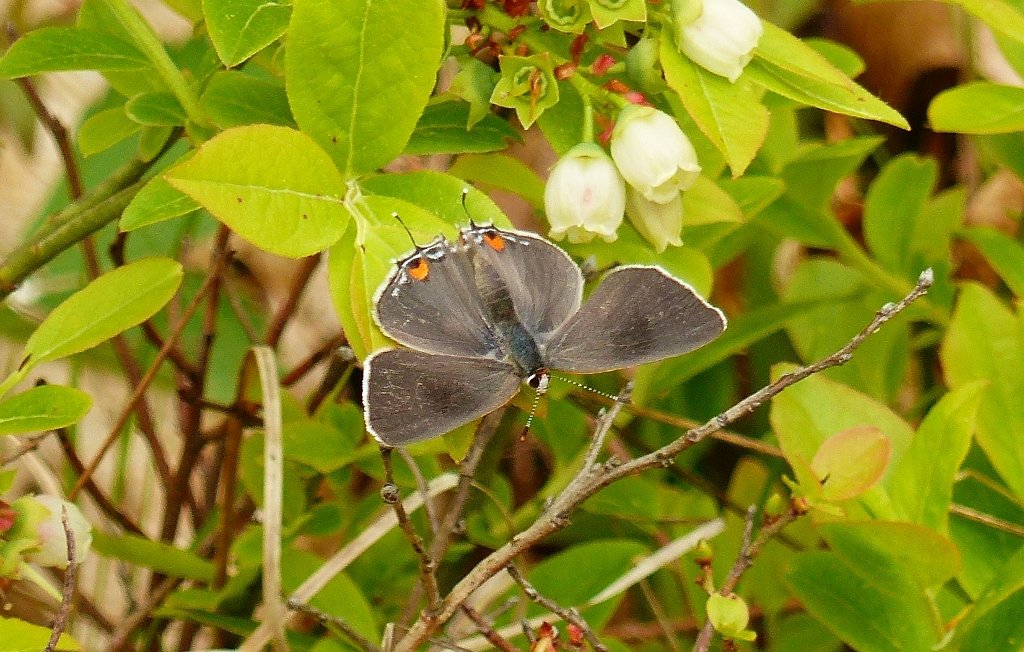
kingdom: Animalia
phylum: Arthropoda
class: Insecta
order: Lepidoptera
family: Lycaenidae
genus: Strymon
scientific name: Strymon melinus
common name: Gray Hairstreak
